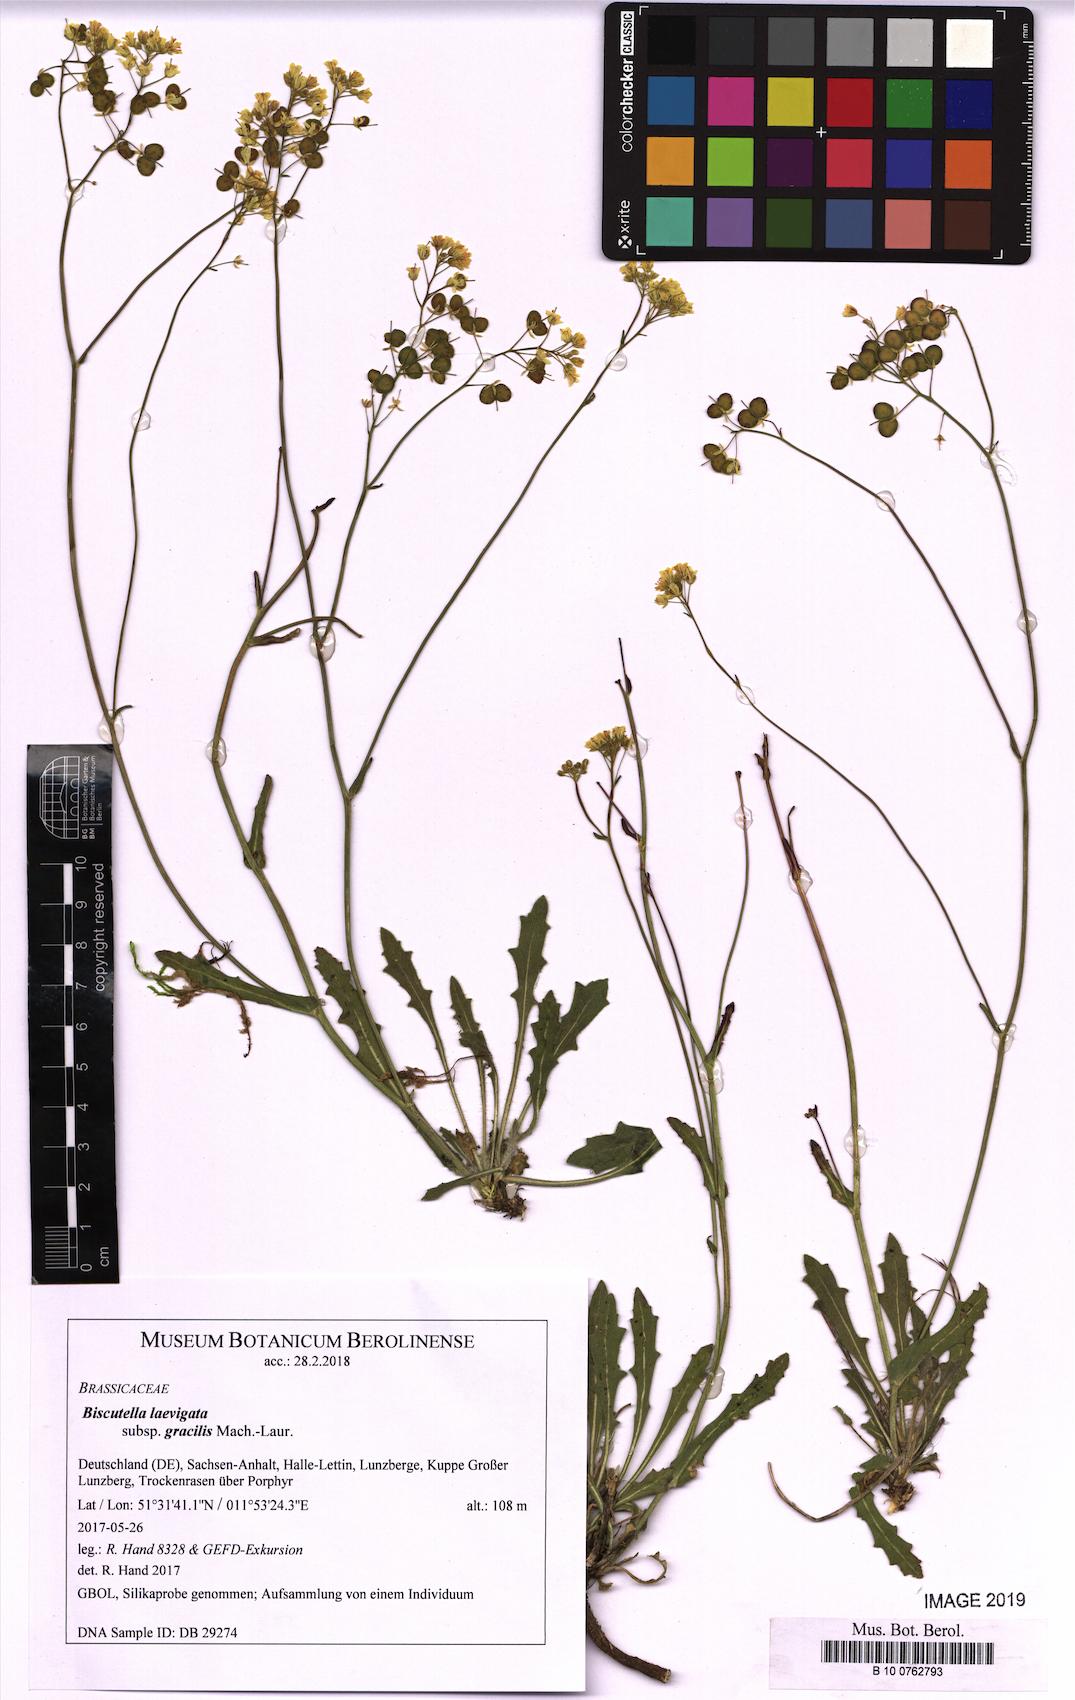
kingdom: Plantae
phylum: Tracheophyta
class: Magnoliopsida
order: Brassicales
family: Brassicaceae
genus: Biscutella
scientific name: Biscutella laevigata
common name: Buckler mustard
